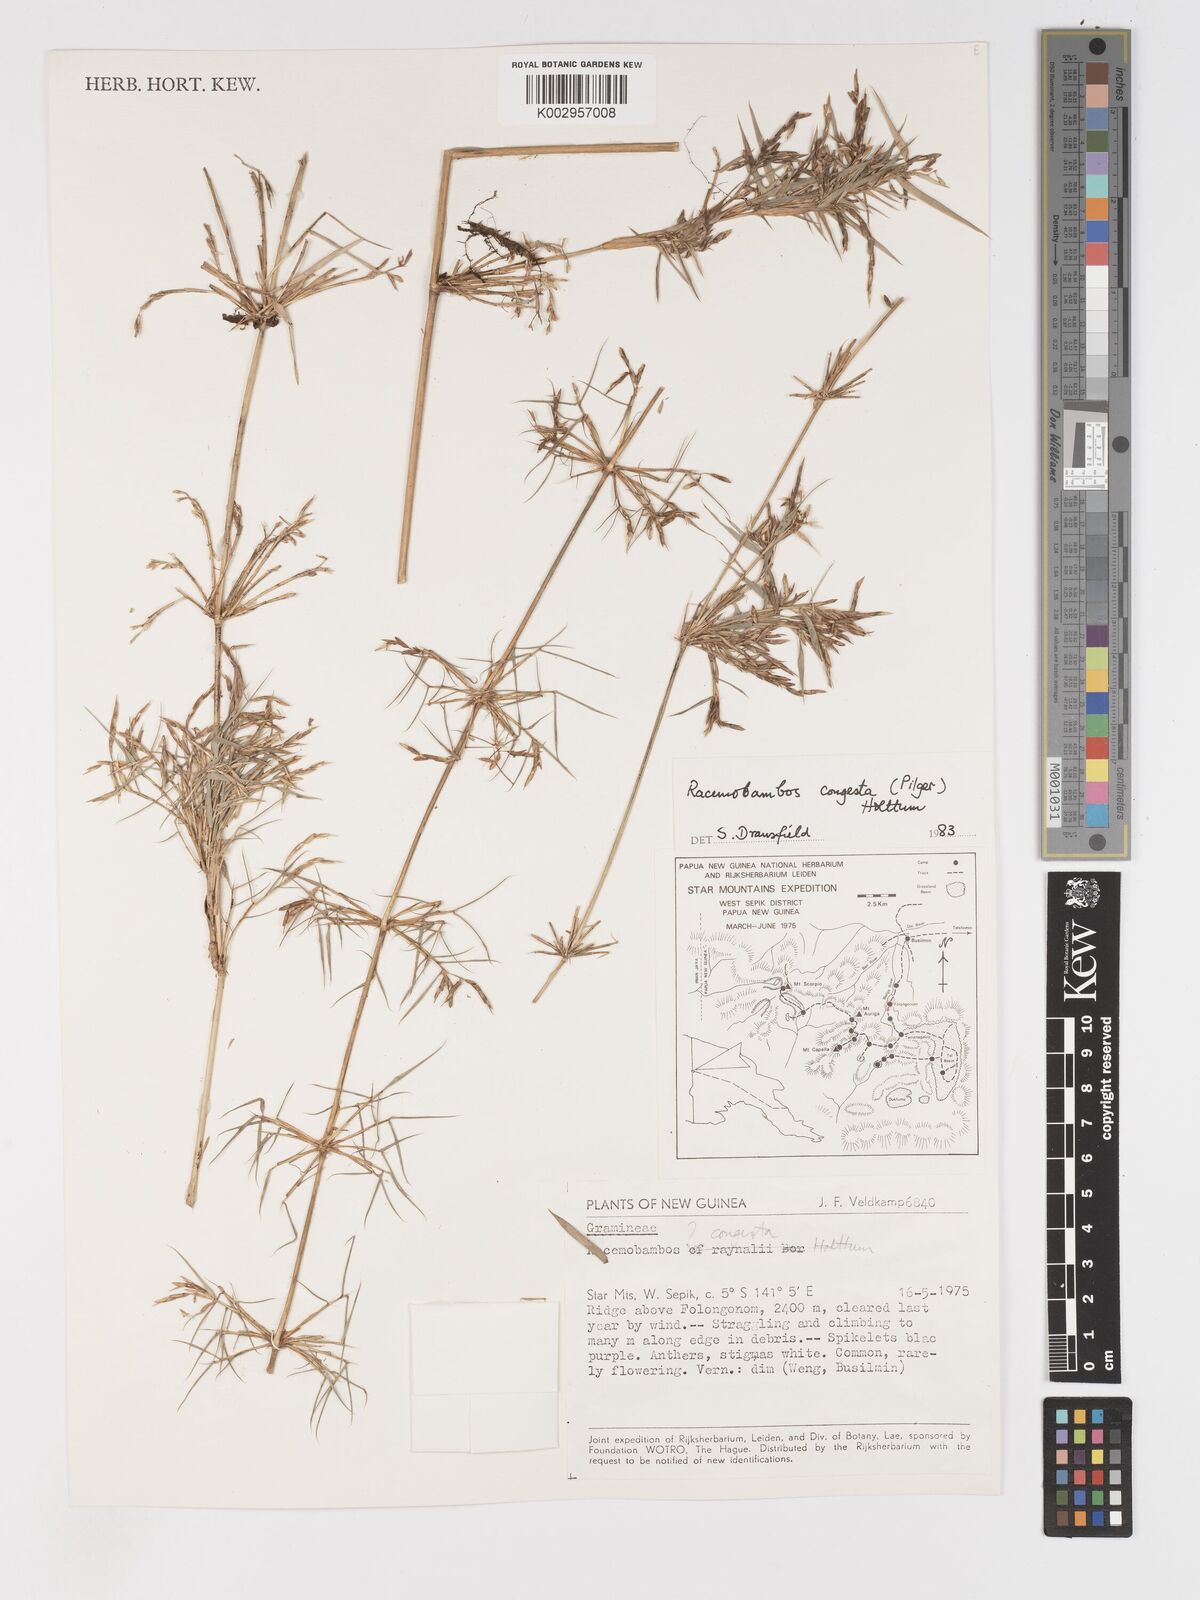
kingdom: Plantae
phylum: Tracheophyta
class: Liliopsida
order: Poales
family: Poaceae
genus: Racemobambos
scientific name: Racemobambos congesta
